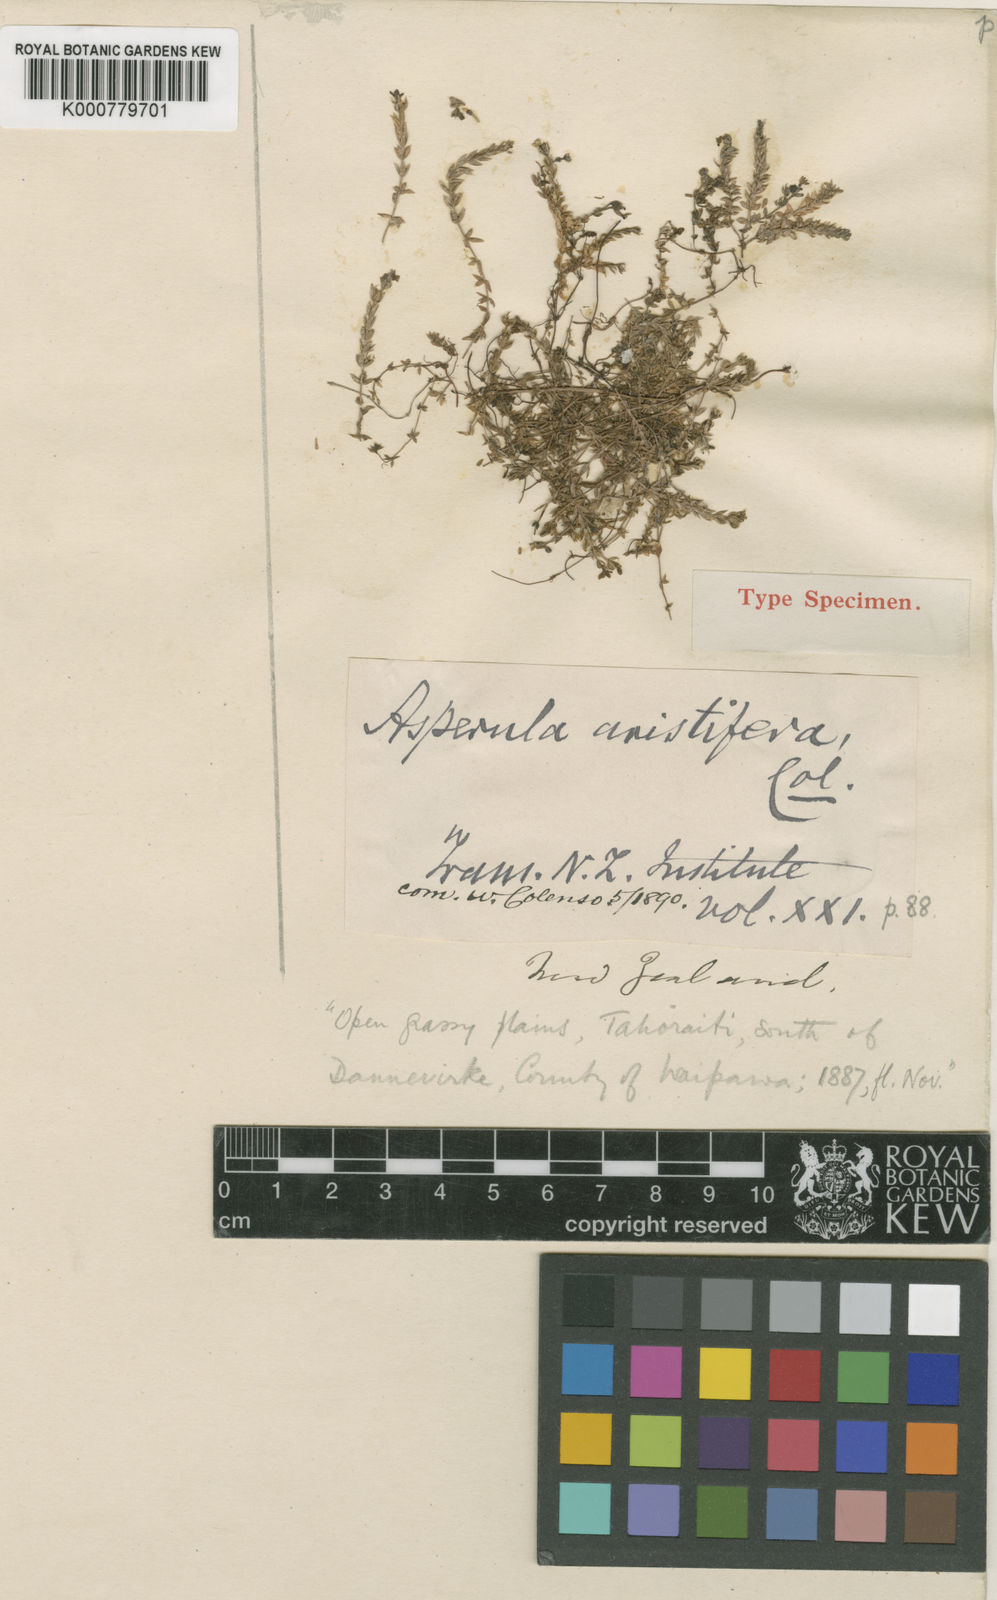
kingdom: Plantae
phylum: Tracheophyta
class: Magnoliopsida
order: Gentianales
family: Rubiaceae
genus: Asperula
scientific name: Asperula perpusilla
